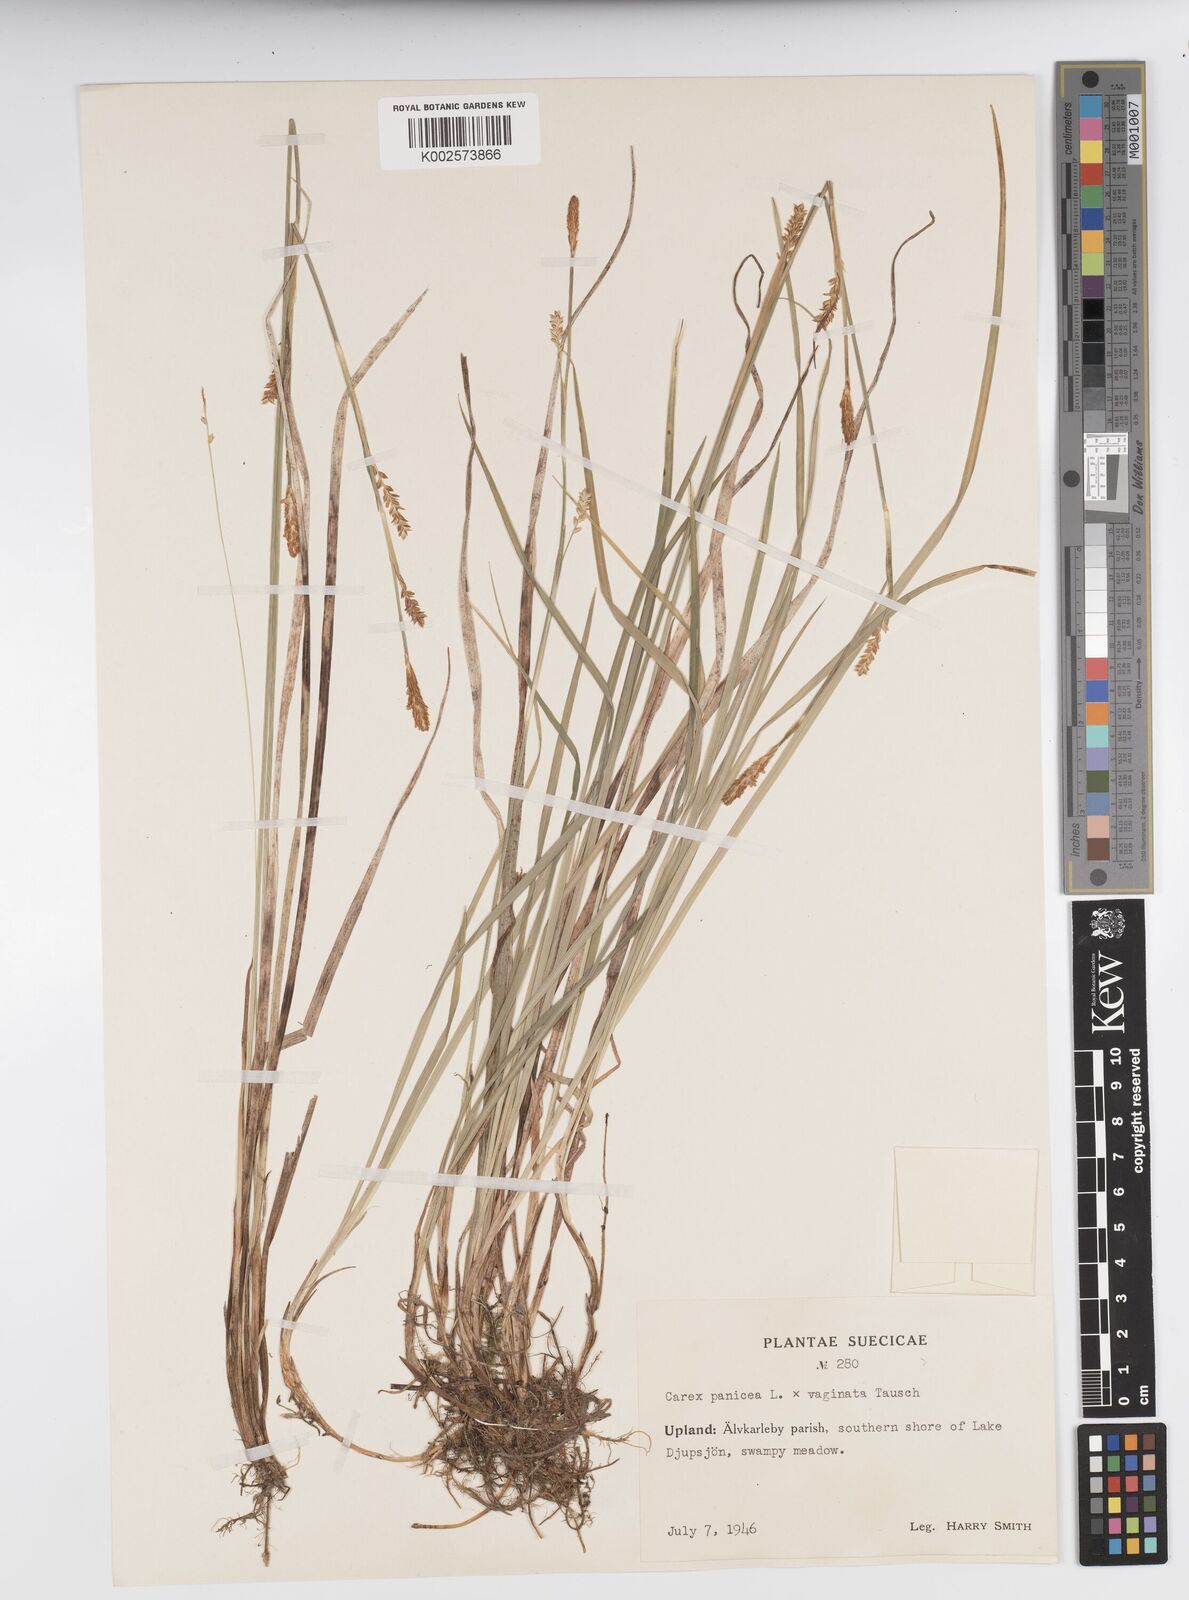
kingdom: Plantae
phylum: Tracheophyta
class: Liliopsida
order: Poales
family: Cyperaceae
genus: Carex
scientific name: Carex panicea
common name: Carnation sedge
